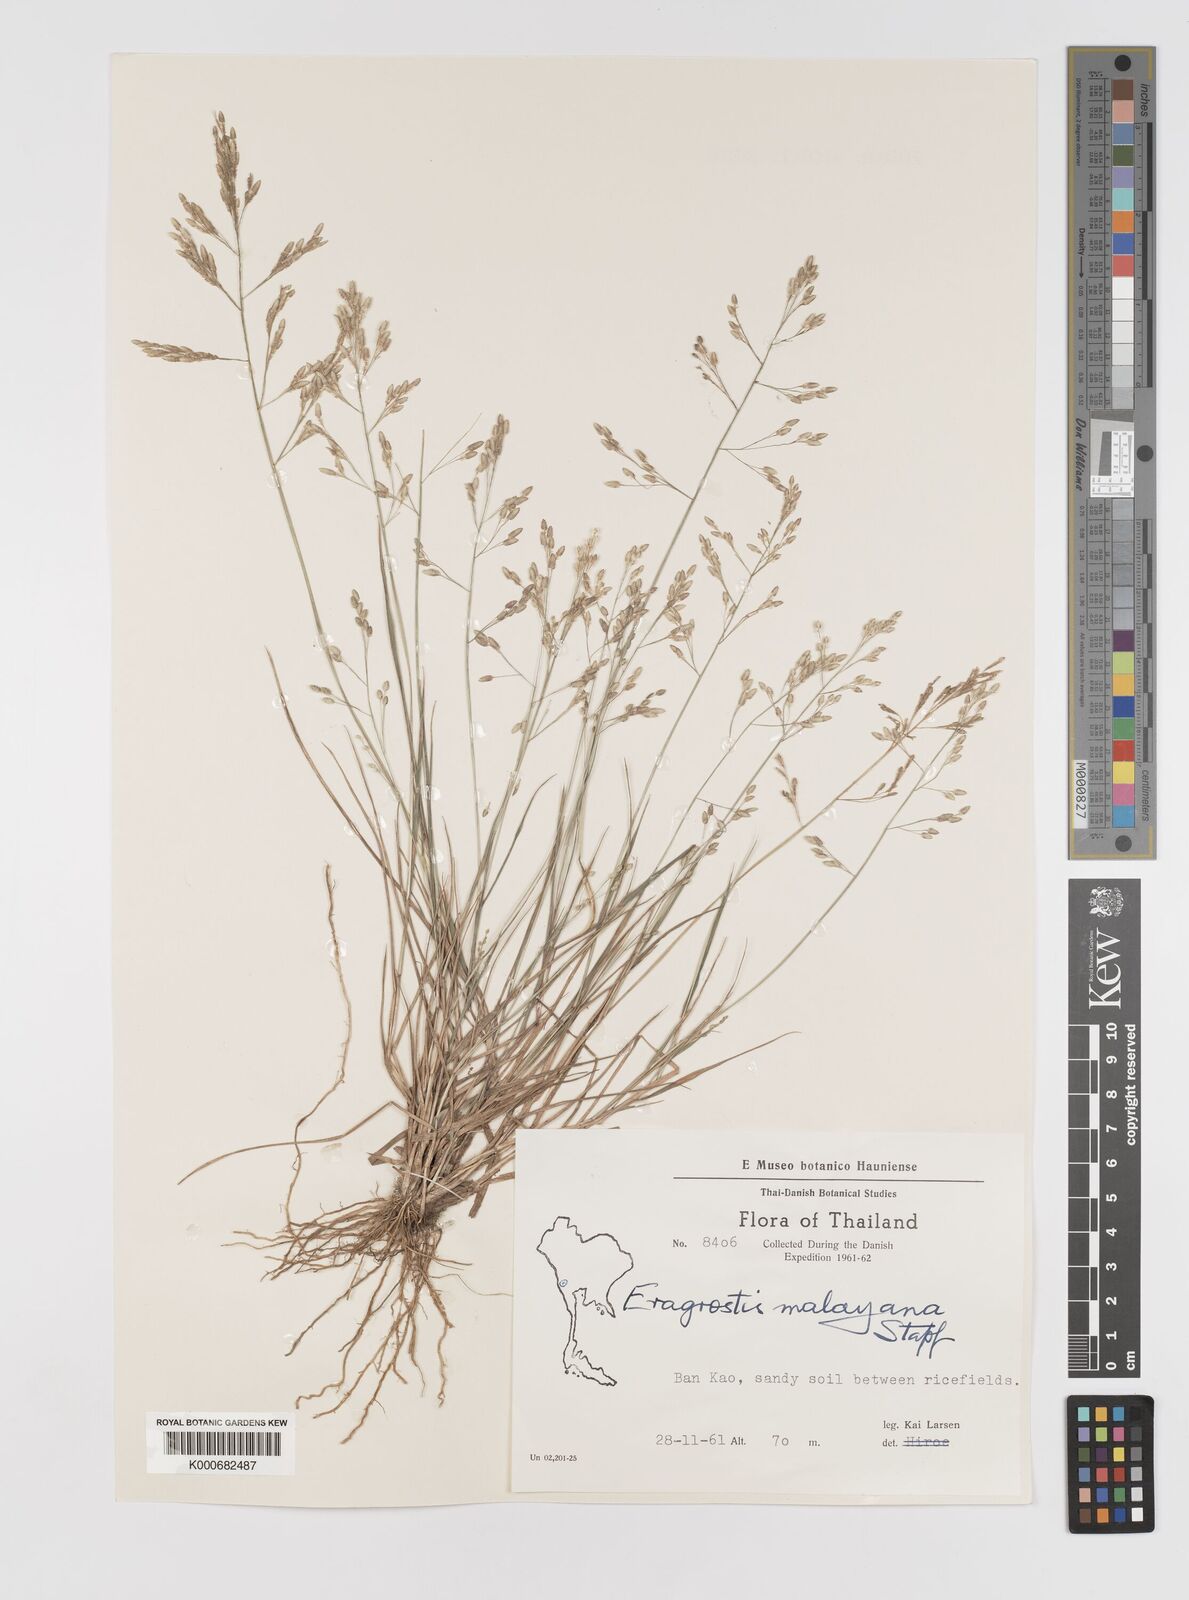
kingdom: Plantae
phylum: Tracheophyta
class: Liliopsida
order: Poales
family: Poaceae
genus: Eragrostis
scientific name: Eragrostis montana
